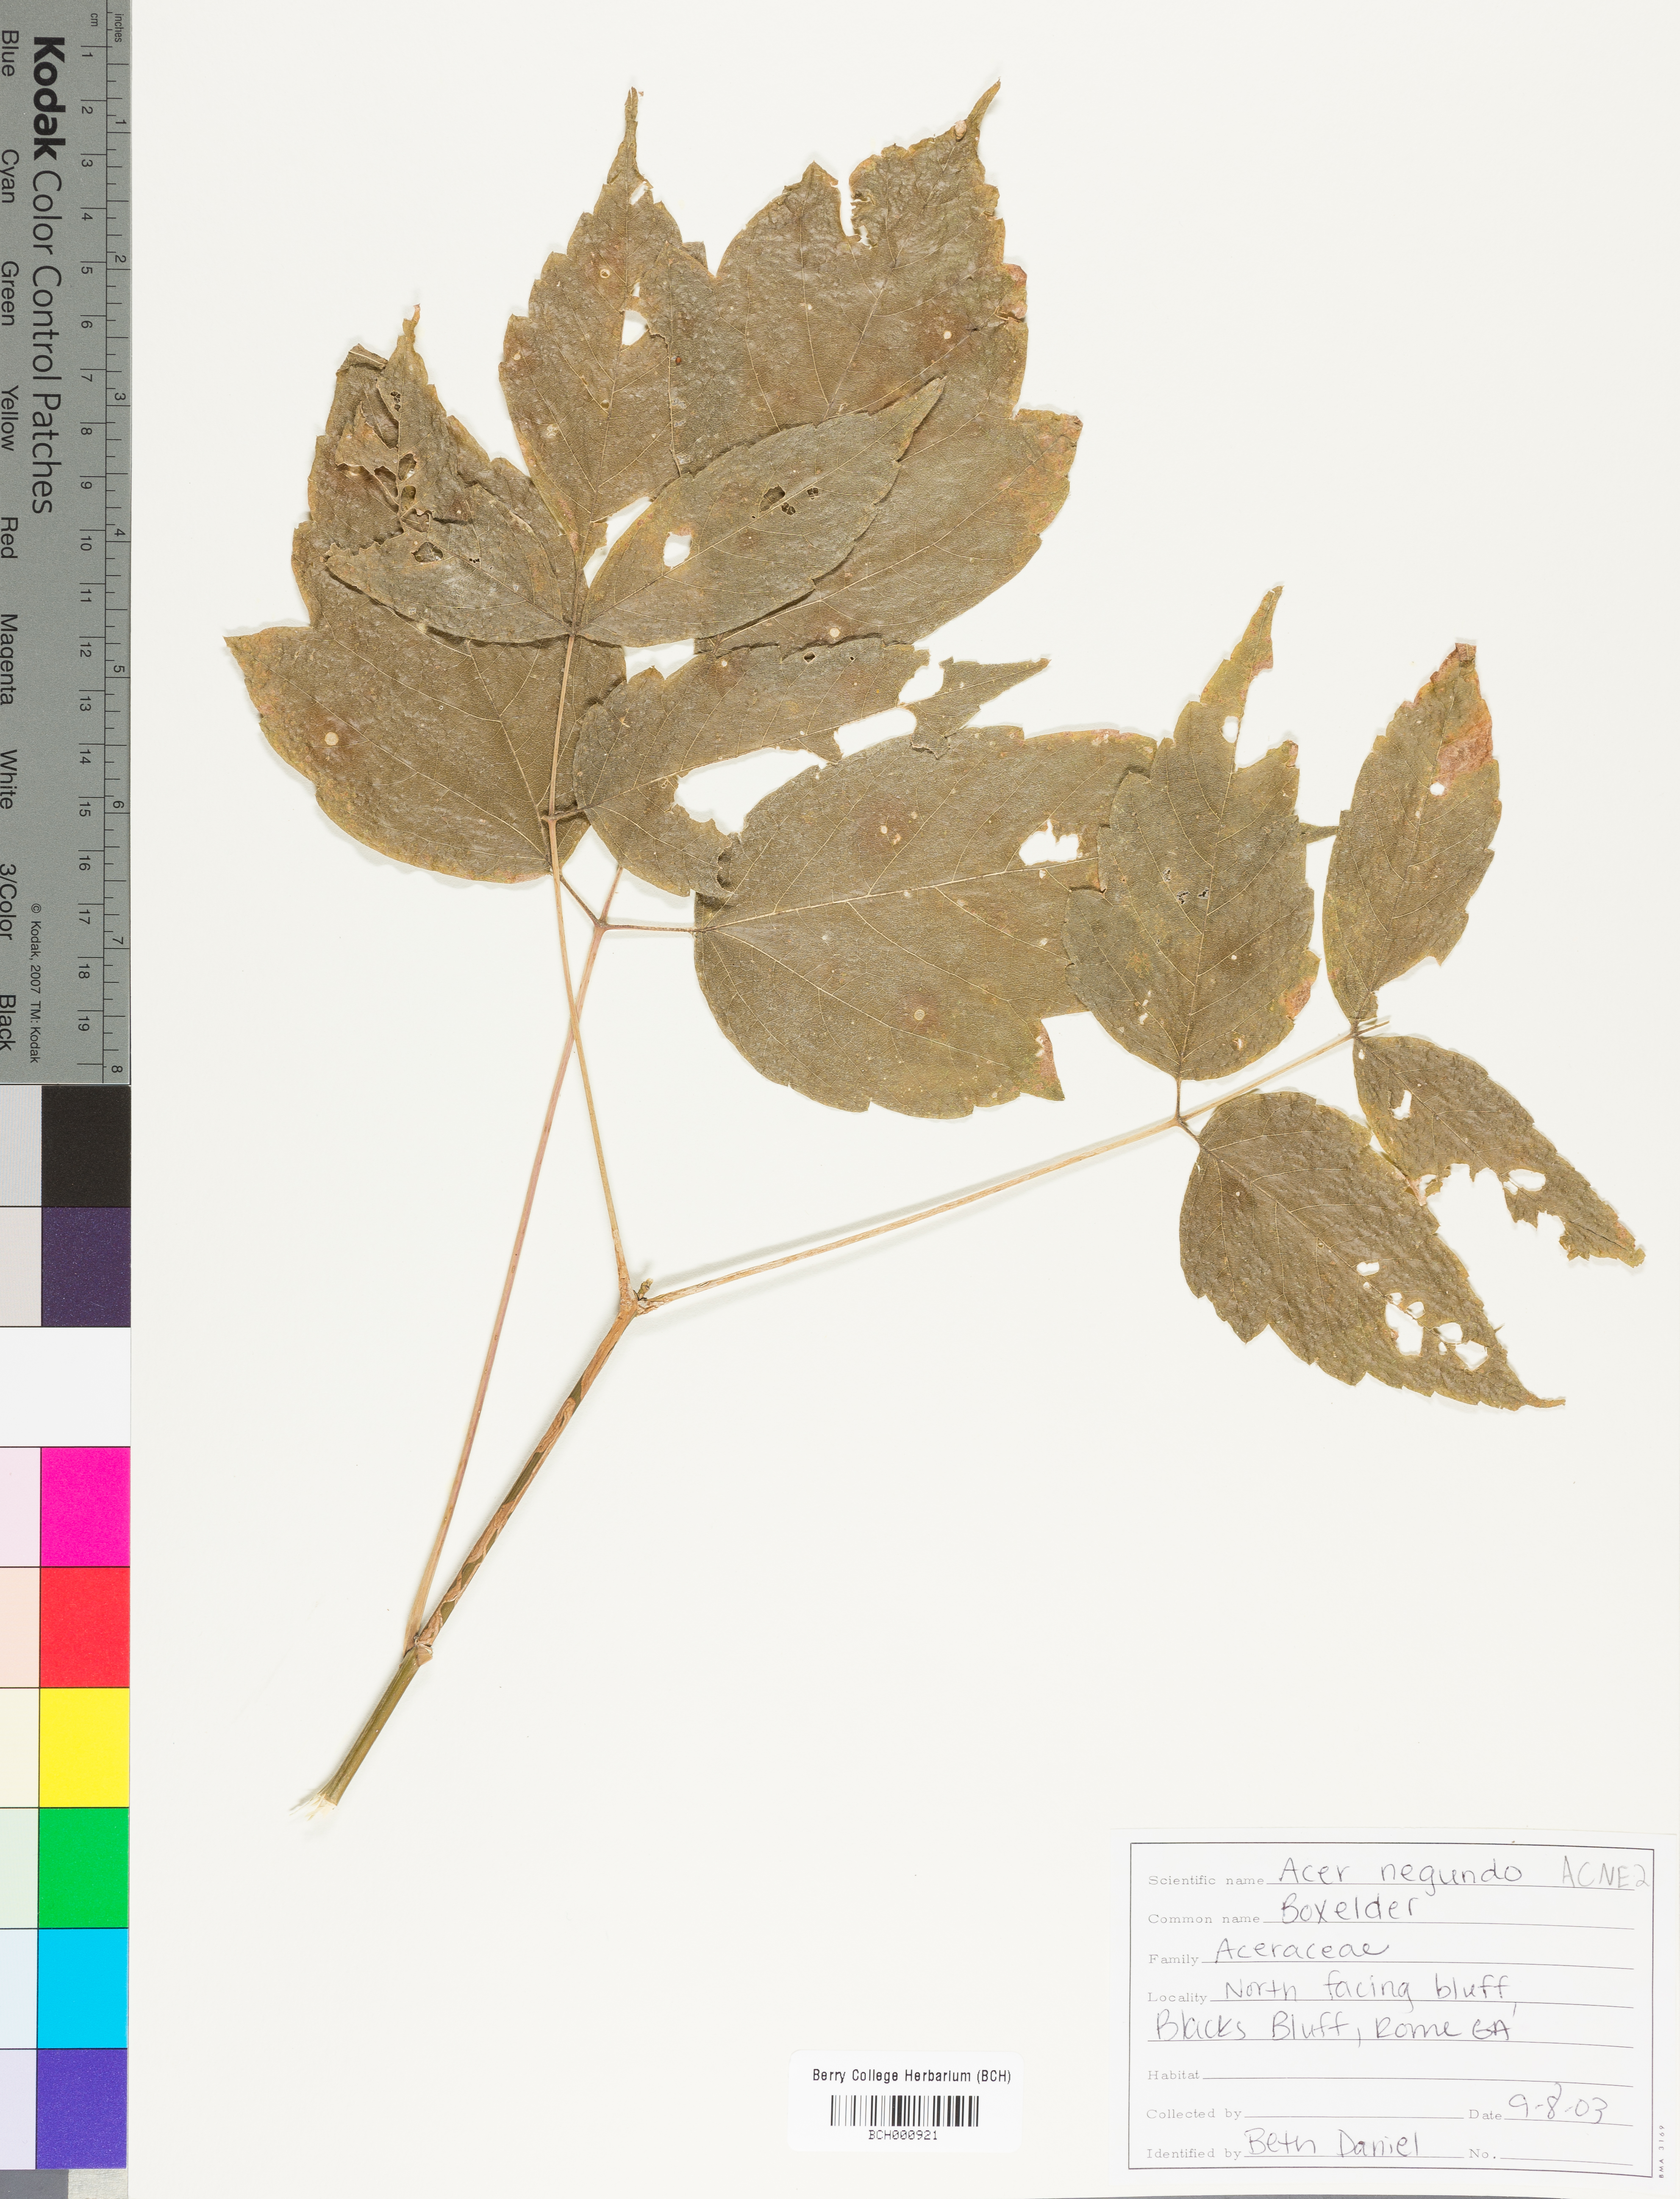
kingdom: Plantae
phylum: Tracheophyta
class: Magnoliopsida
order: Sapindales
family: Sapindaceae
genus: Acer
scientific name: Acer negundo
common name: Ashleaf maple
